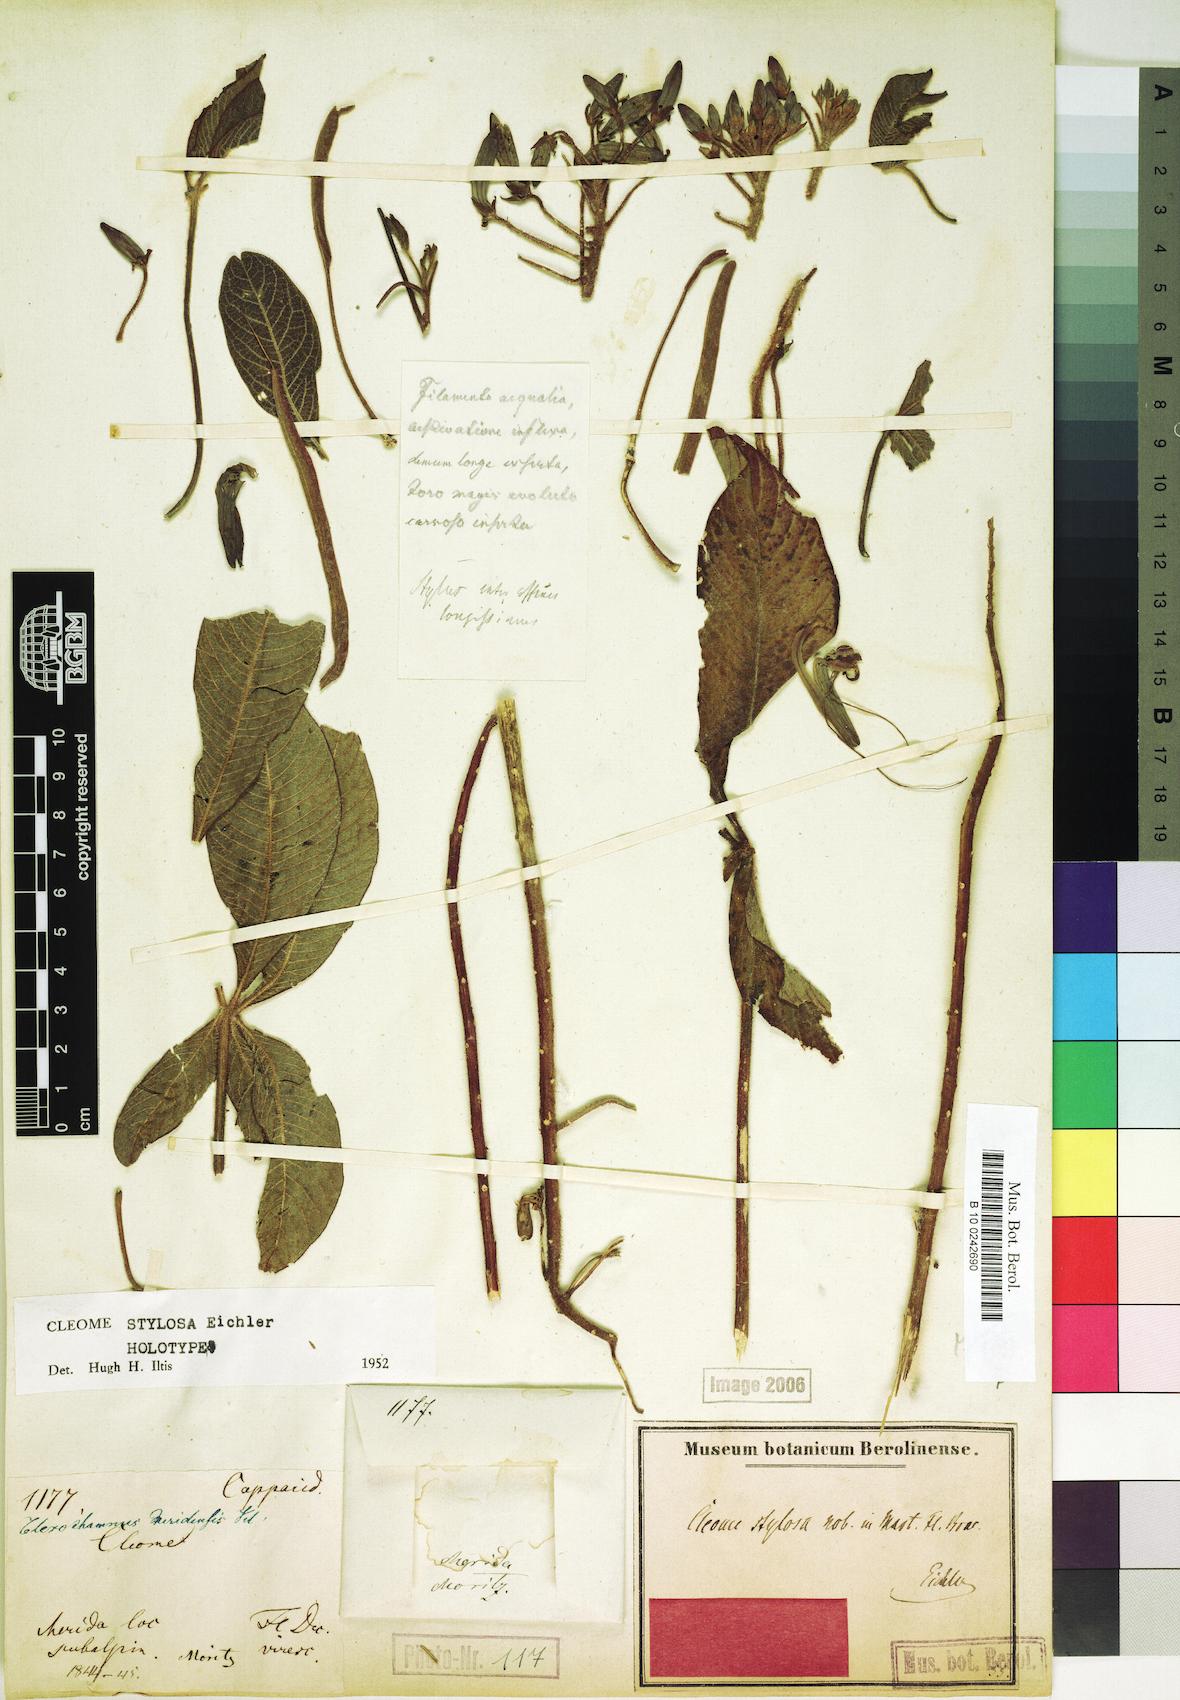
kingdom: Plantae
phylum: Tracheophyta
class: Magnoliopsida
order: Brassicales
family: Cleomaceae
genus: Pterocleome
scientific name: Pterocleome stylosa
